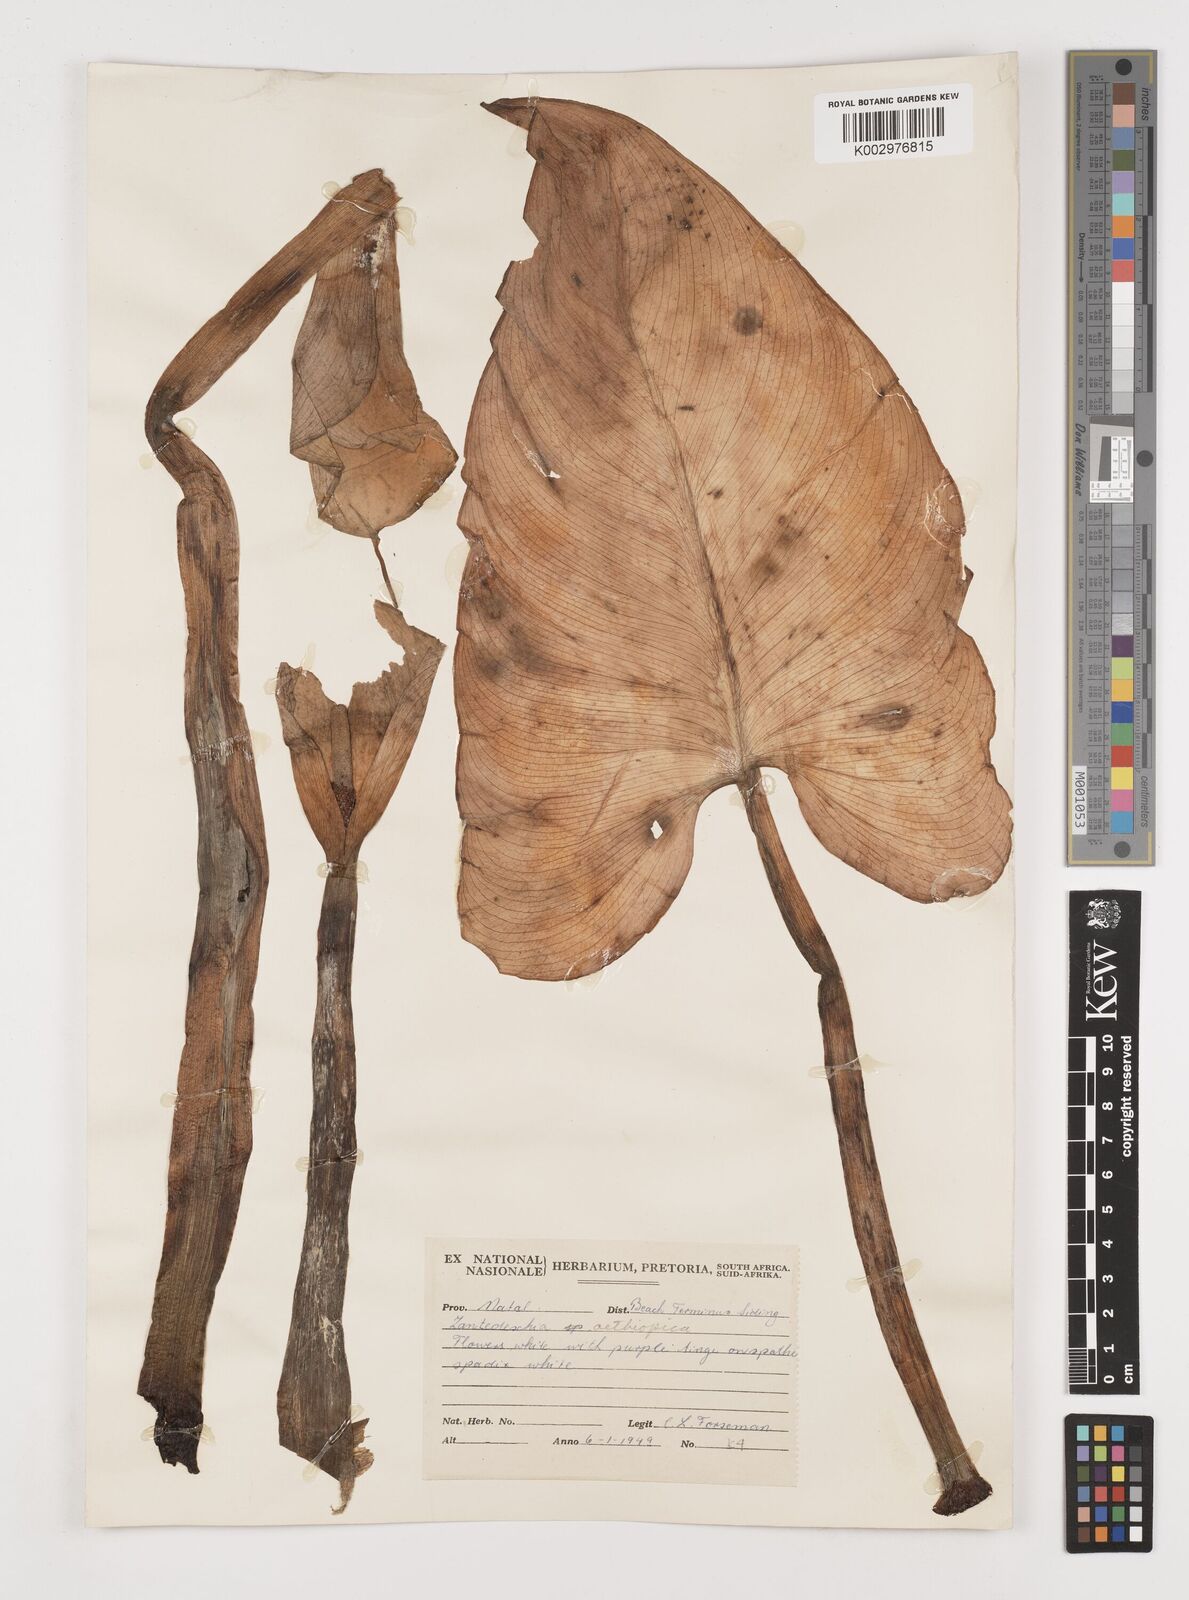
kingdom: Plantae
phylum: Tracheophyta
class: Liliopsida
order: Alismatales
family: Araceae
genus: Zantedeschia
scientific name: Zantedeschia aethiopica
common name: Altar-lily
